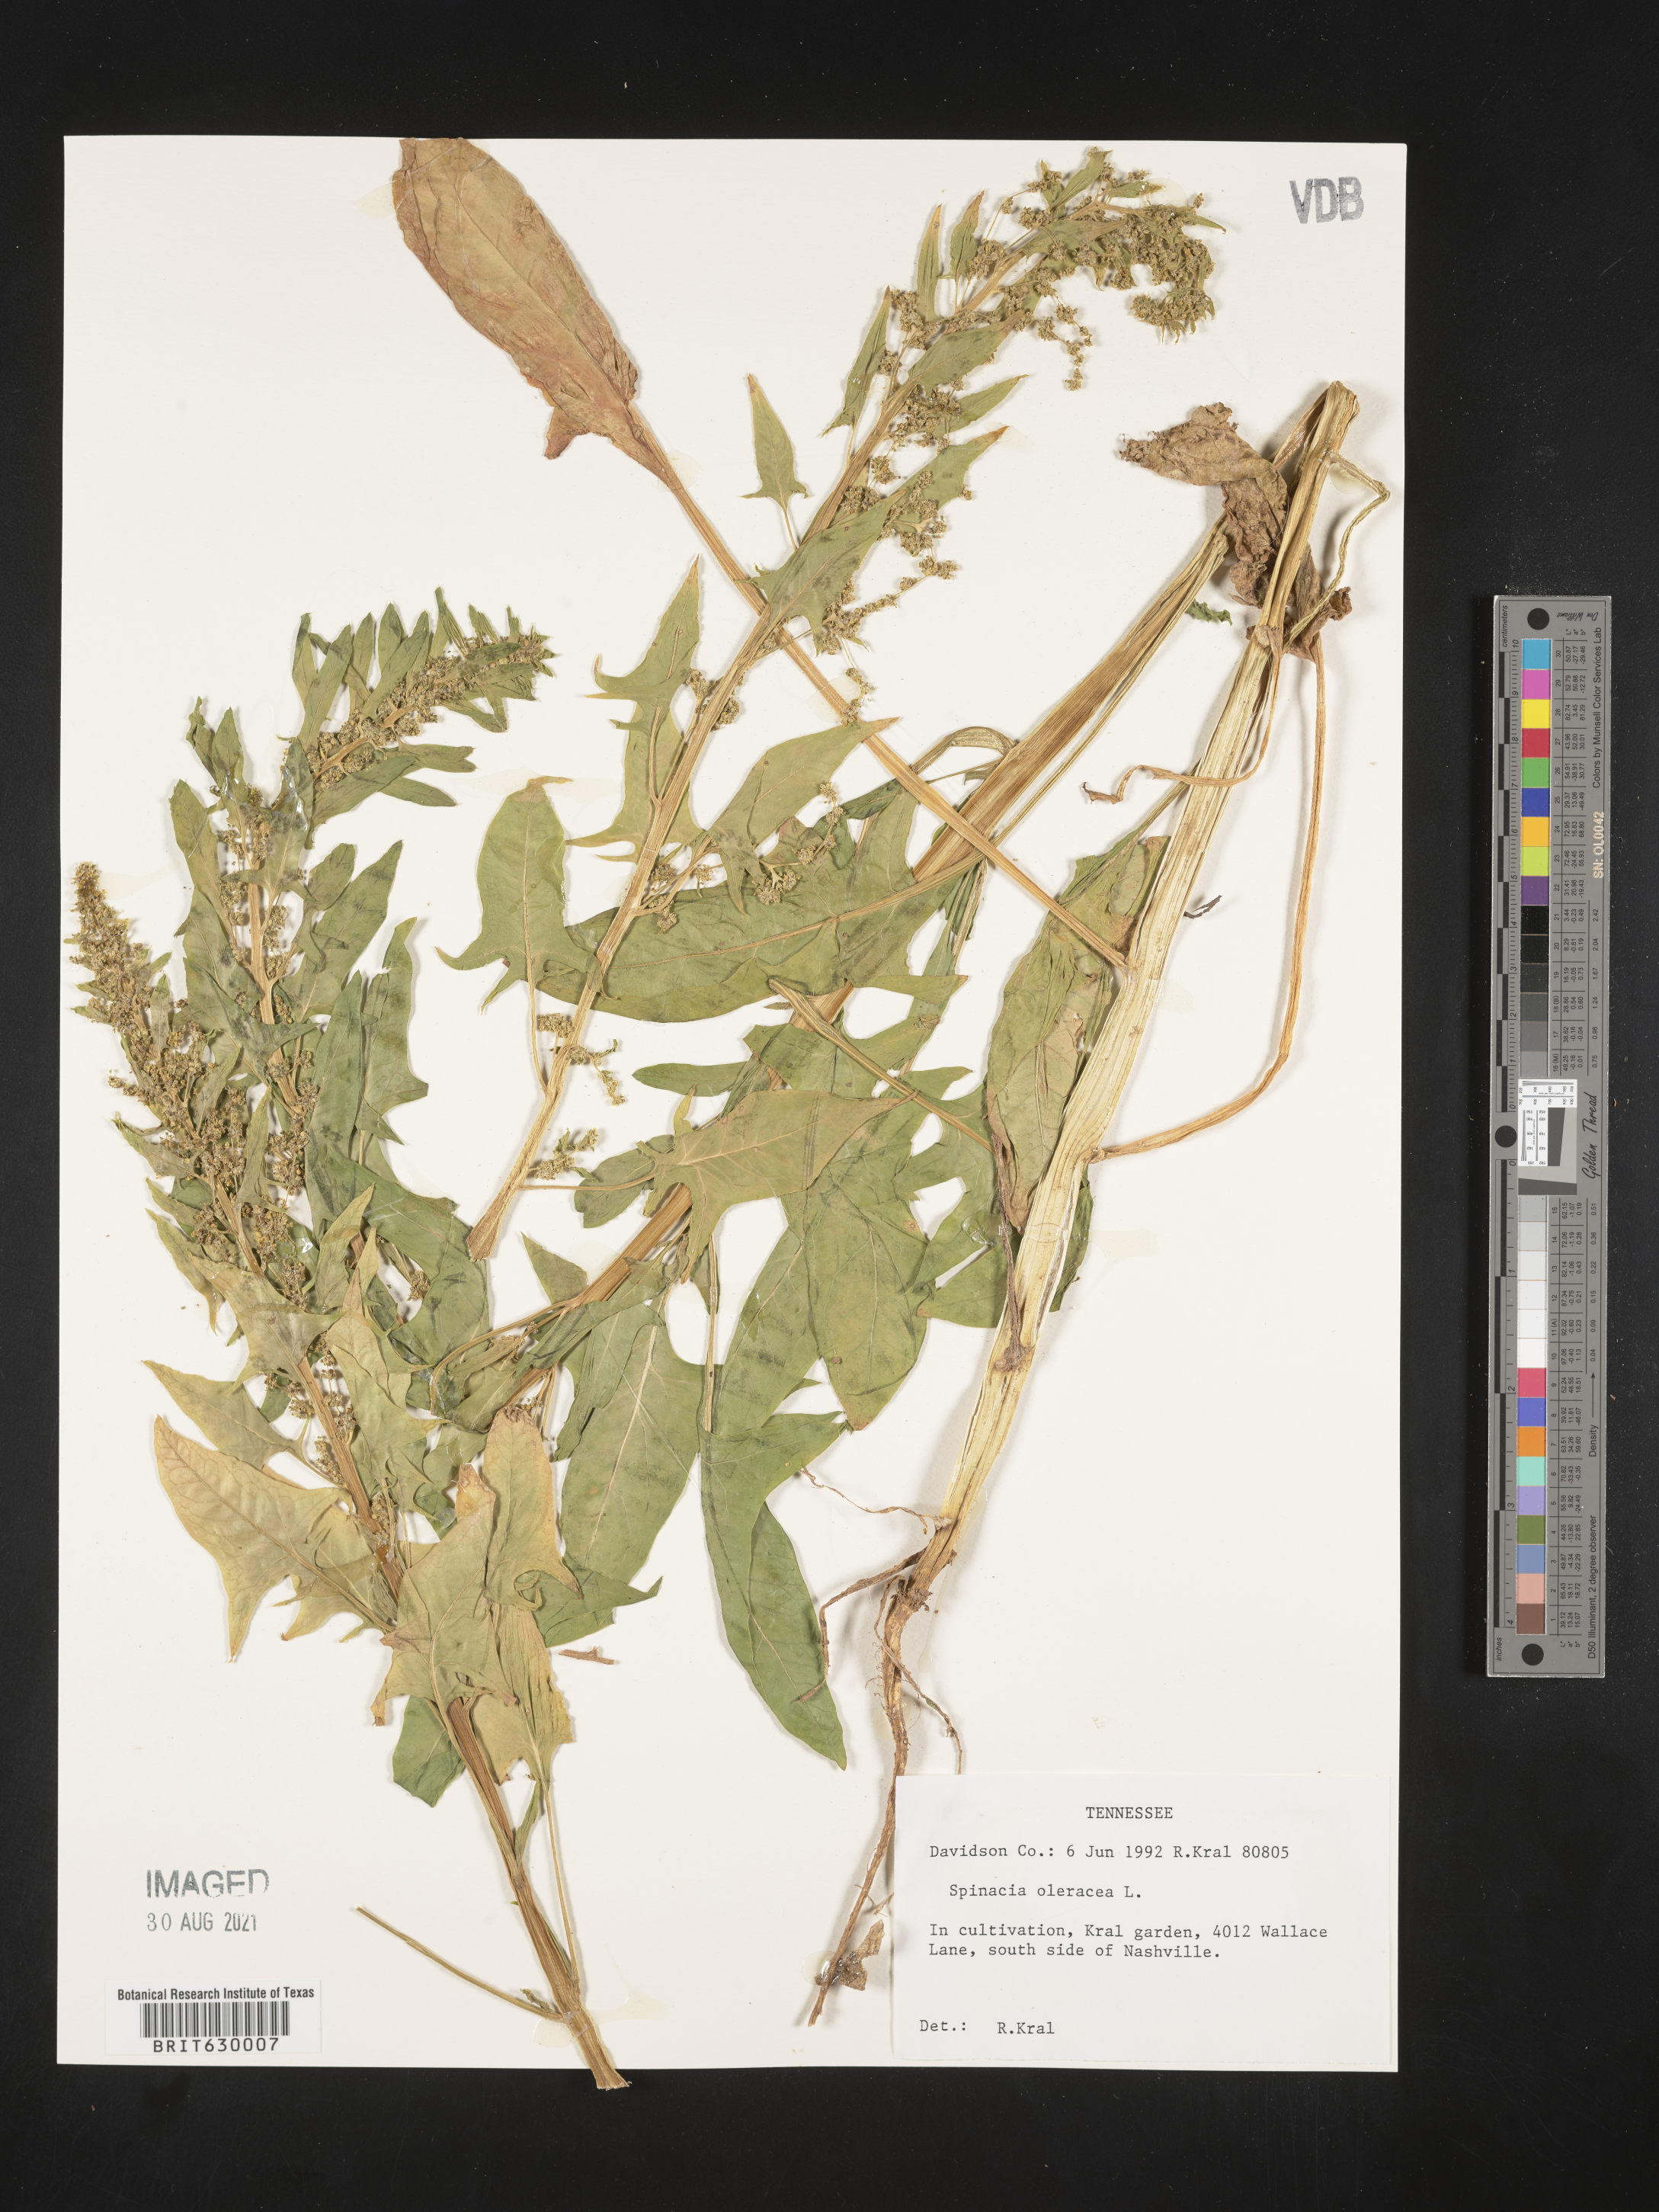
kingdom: Plantae
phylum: Tracheophyta
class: Magnoliopsida
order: Caryophyllales
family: Amaranthaceae
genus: Spinacia
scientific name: Spinacia oleracea
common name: Spinach
